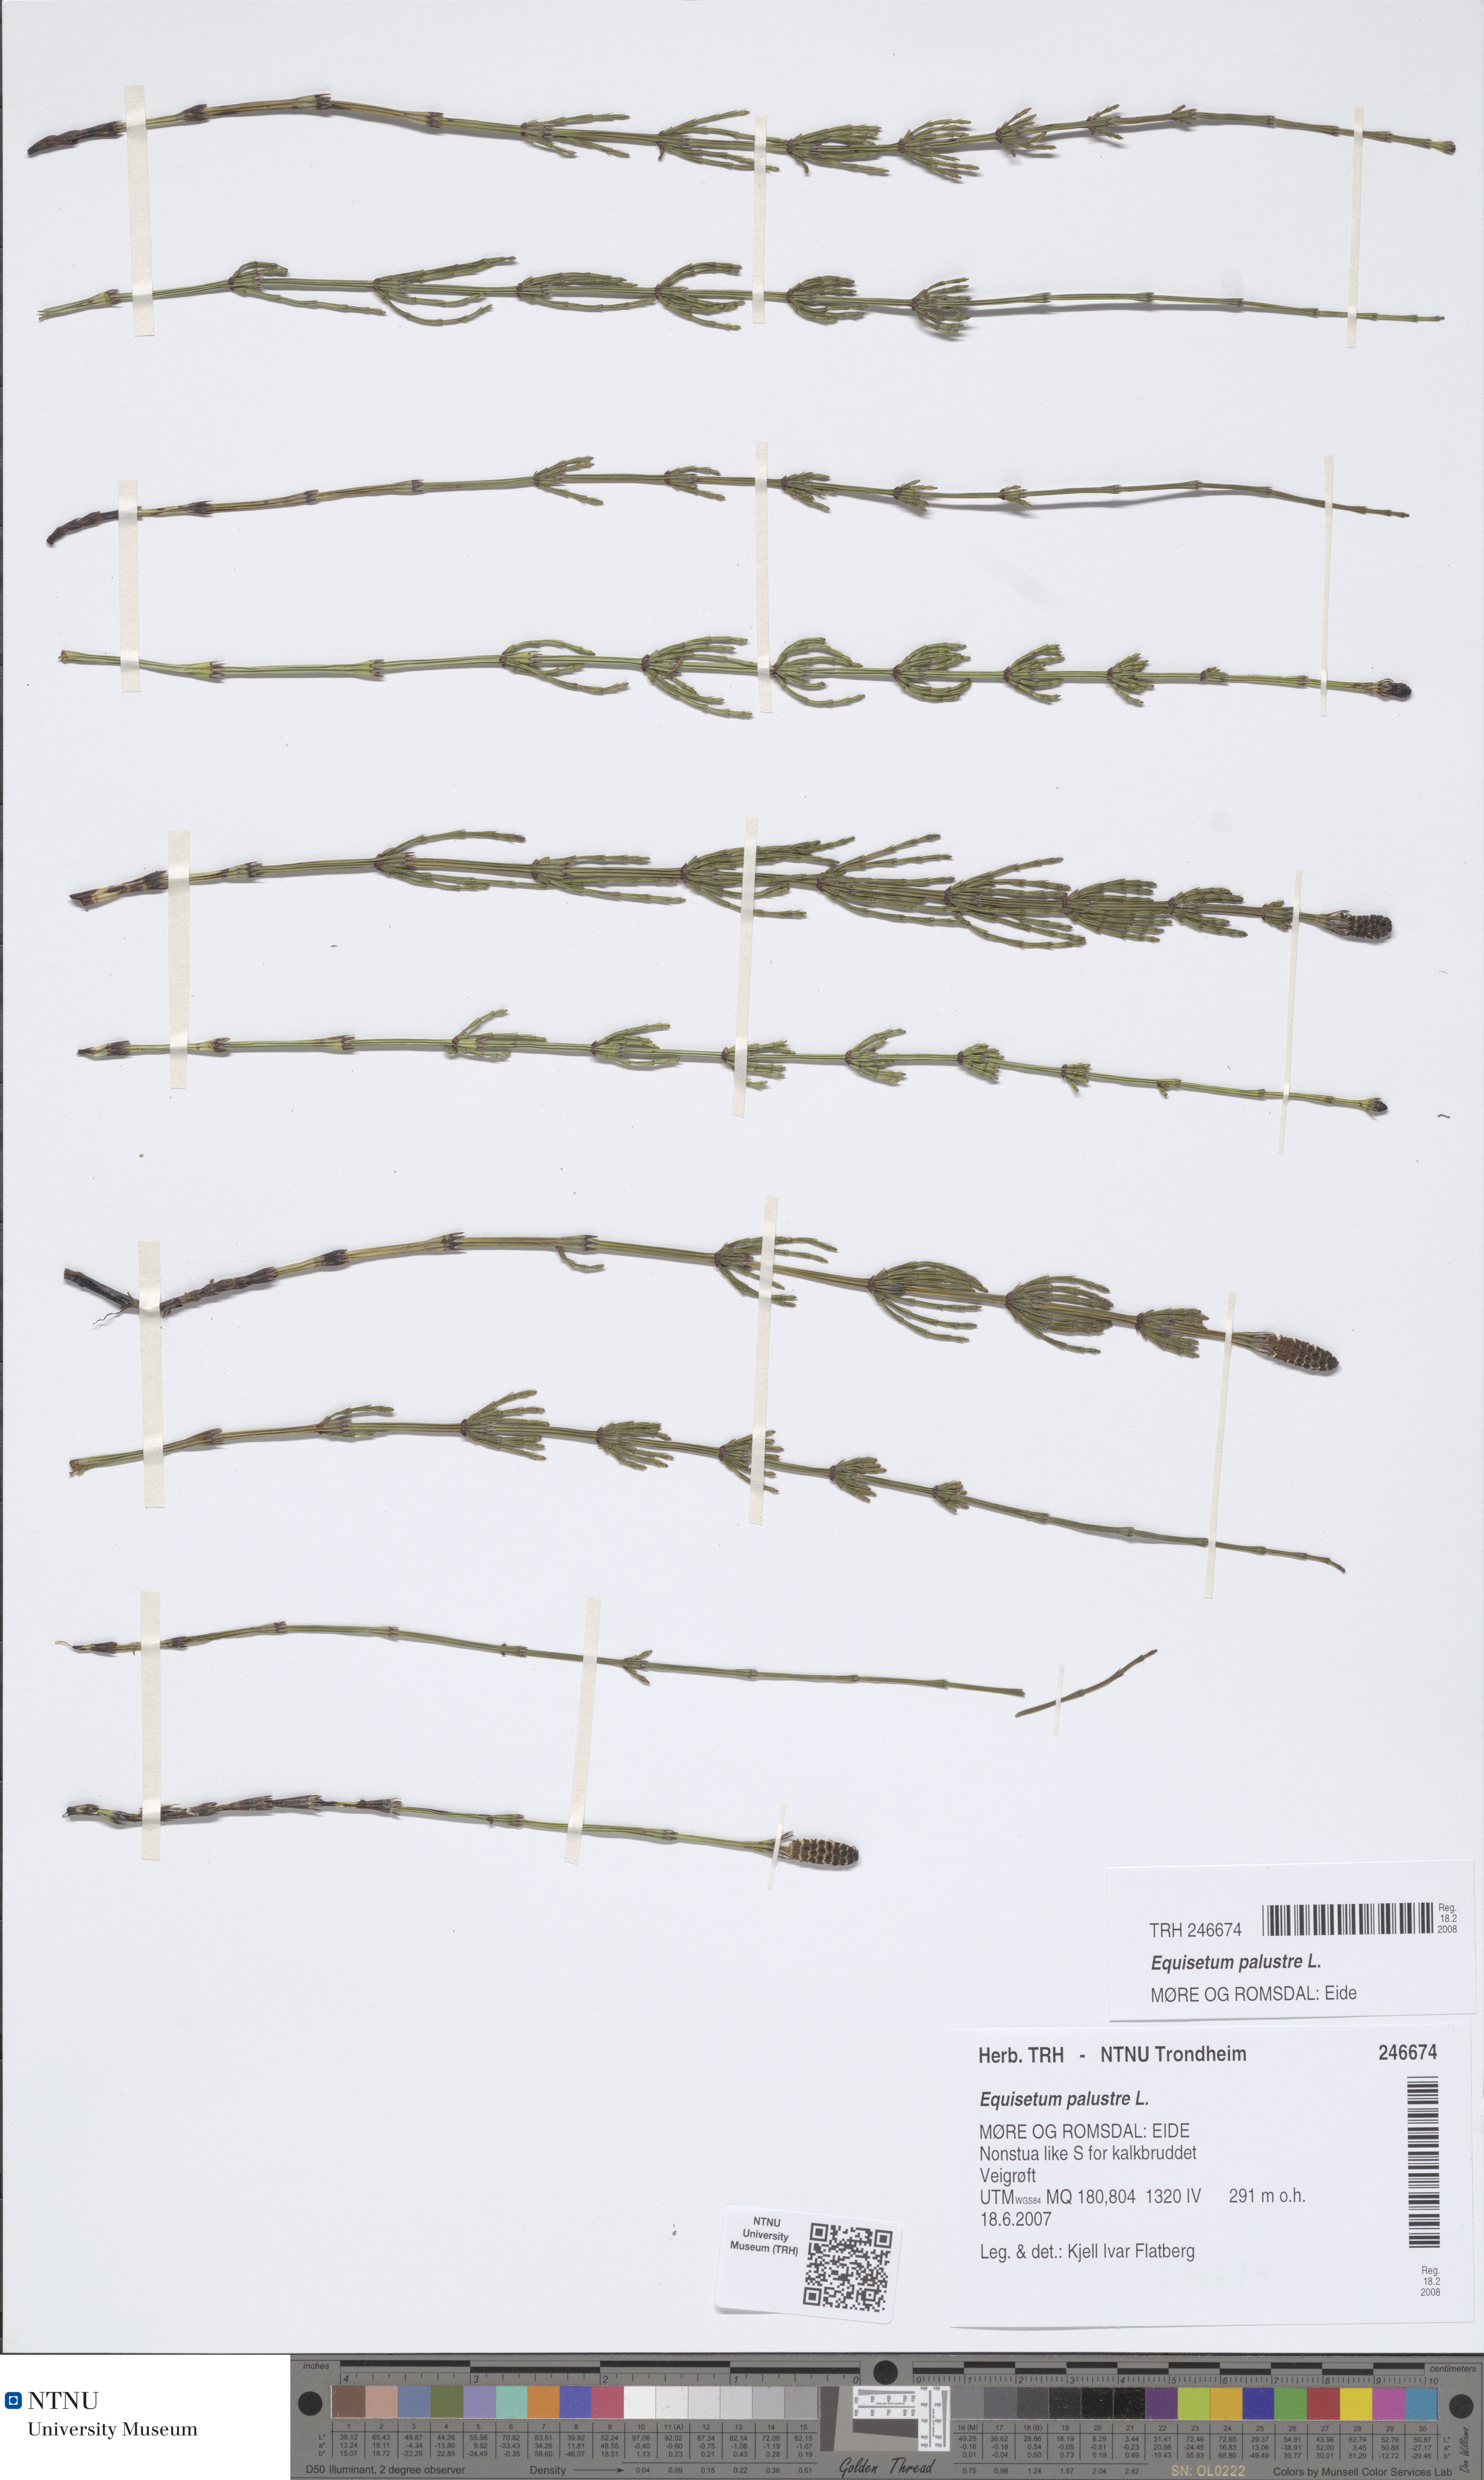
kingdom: Plantae
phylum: Tracheophyta
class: Polypodiopsida
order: Equisetales
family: Equisetaceae
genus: Equisetum
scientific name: Equisetum palustre
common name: Marsh horsetail
